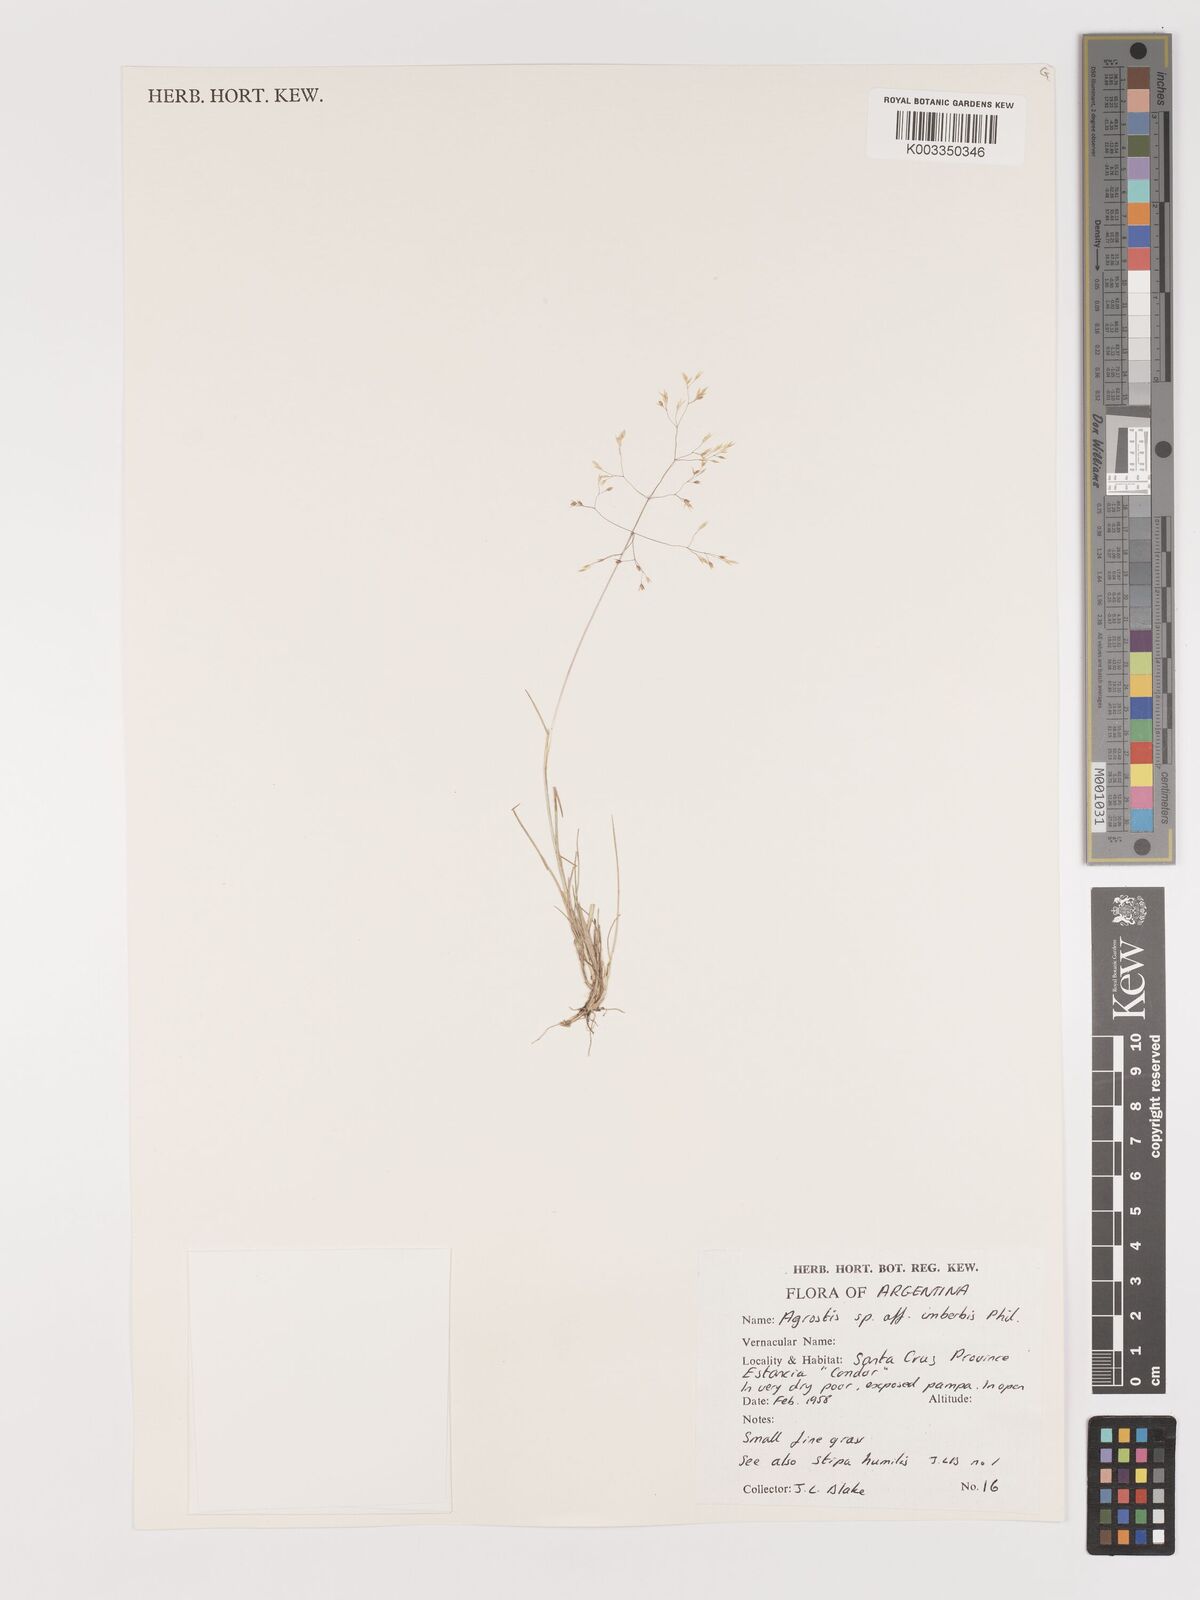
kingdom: Plantae
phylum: Tracheophyta
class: Liliopsida
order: Poales
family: Poaceae
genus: Agrostis
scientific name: Agrostis
